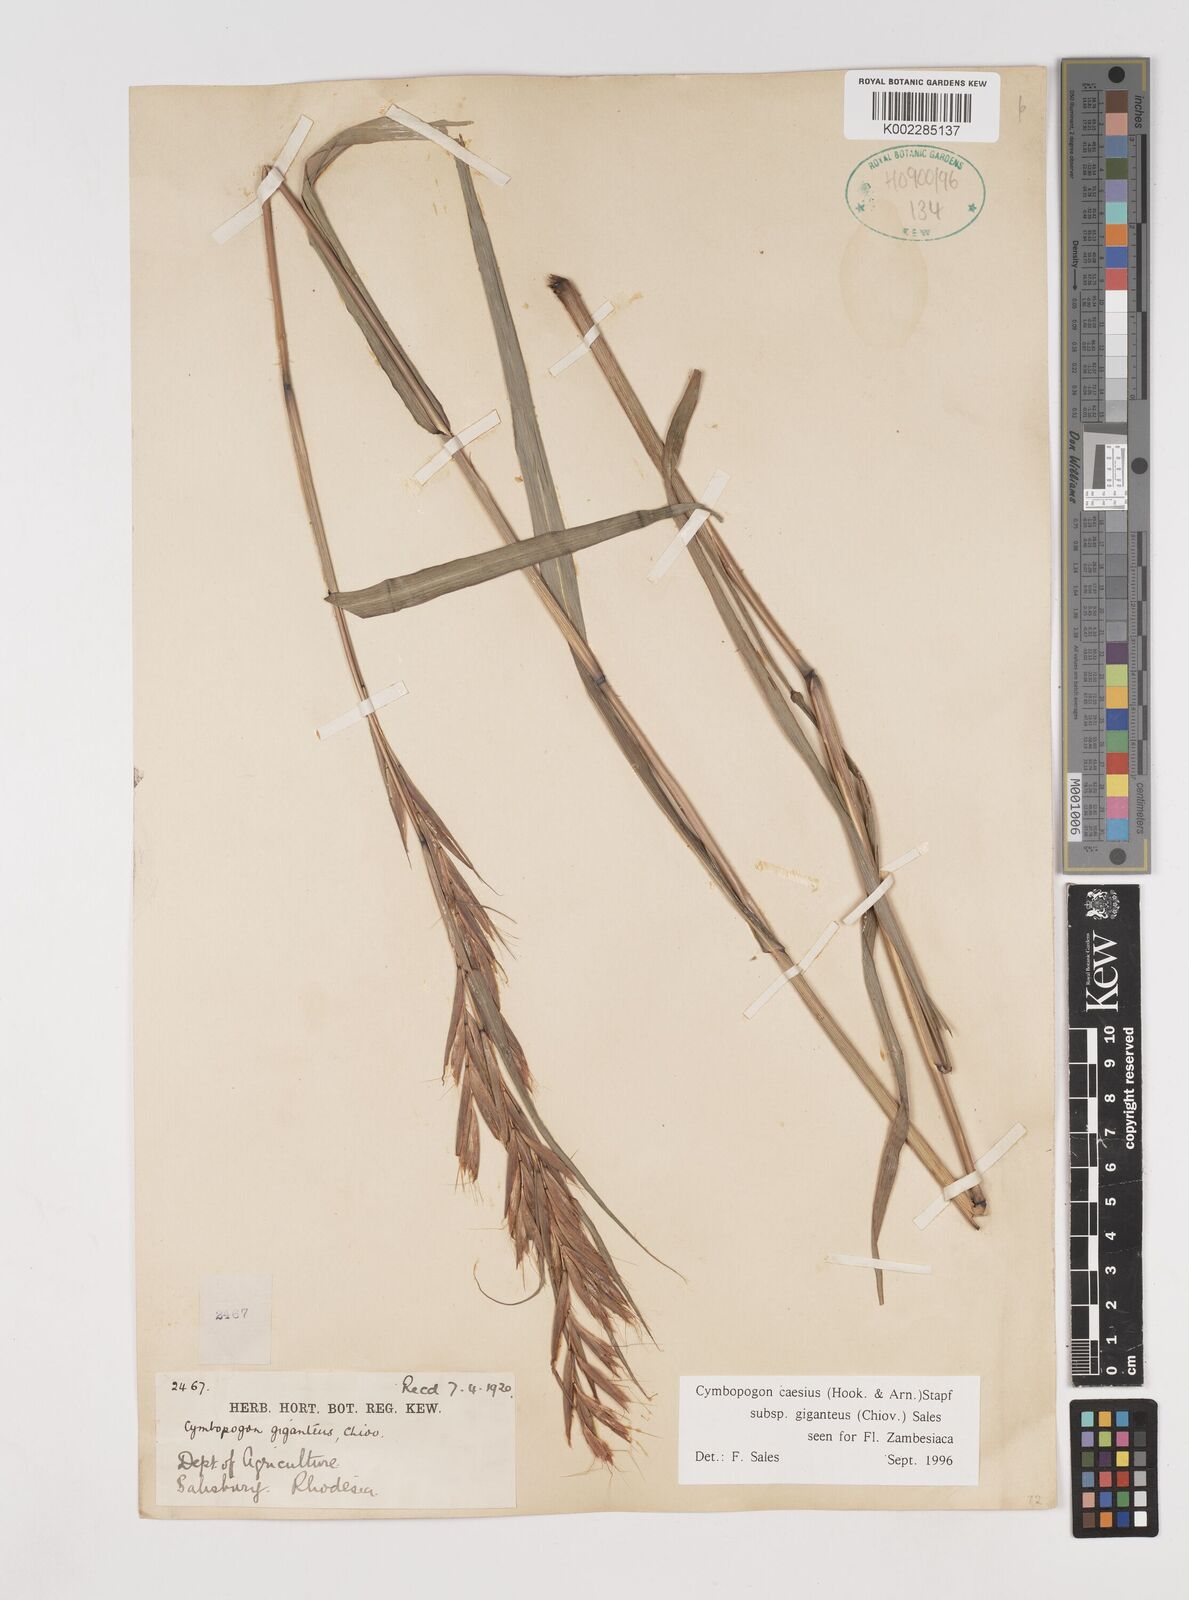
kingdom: Plantae
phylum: Tracheophyta
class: Liliopsida
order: Poales
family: Poaceae
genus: Cymbopogon
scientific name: Cymbopogon giganteus
